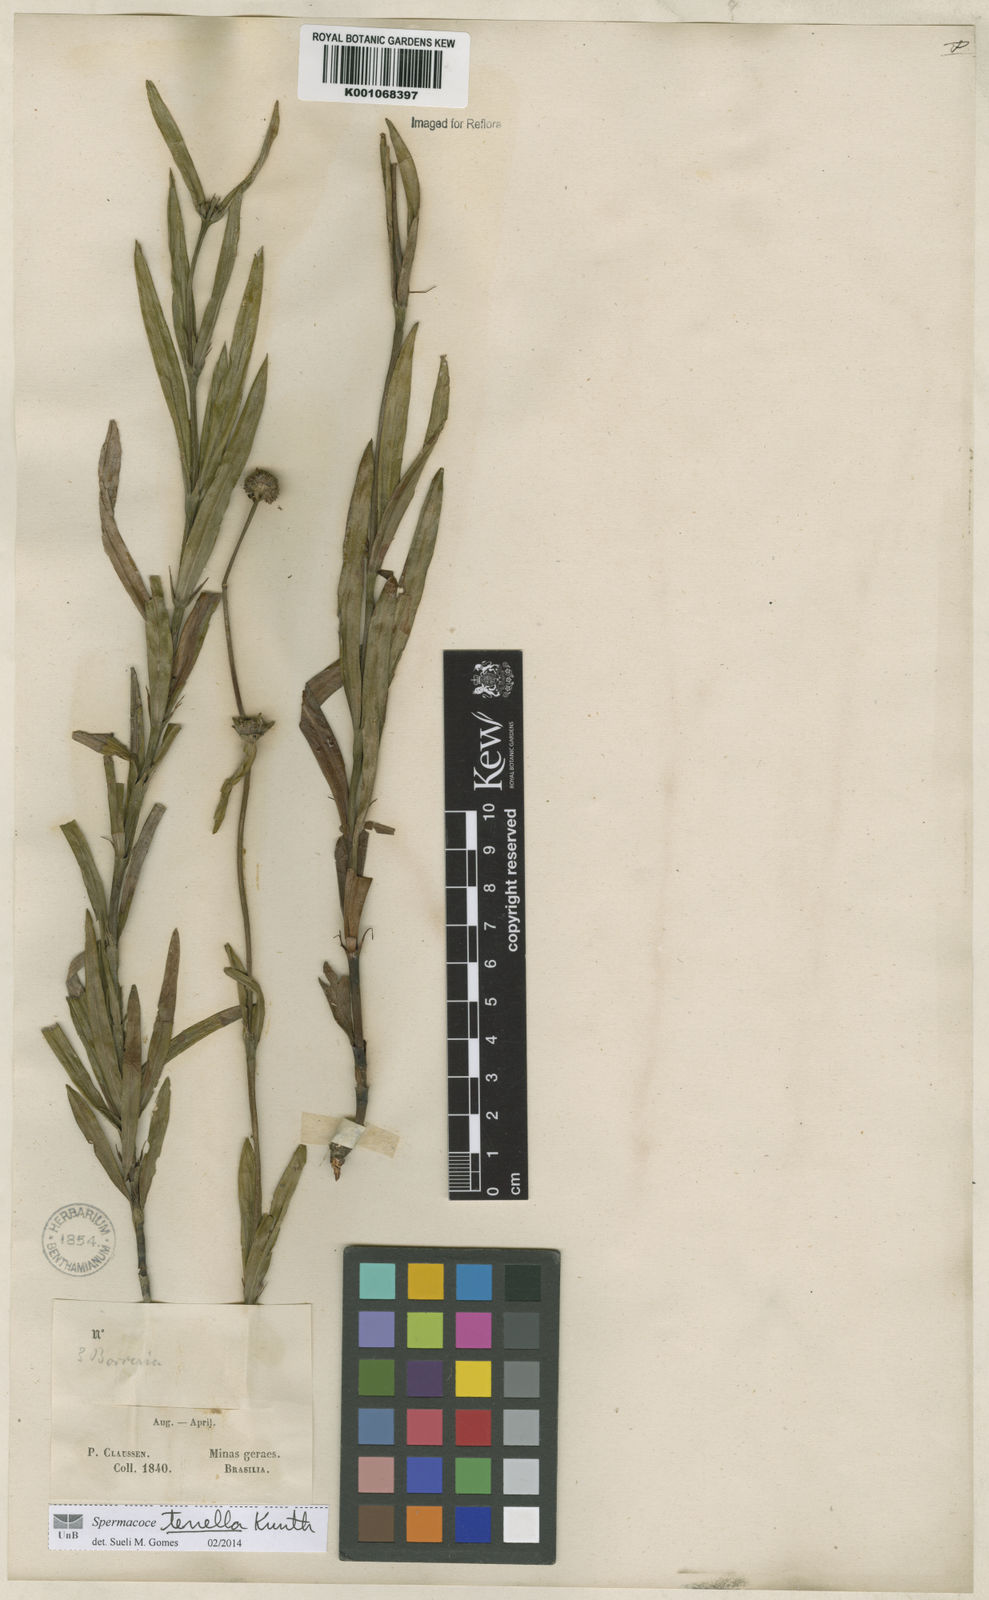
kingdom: Plantae
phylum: Tracheophyta
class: Magnoliopsida
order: Gentianales
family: Rubiaceae
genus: Spermacoce
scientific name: Spermacoce orinocensis
